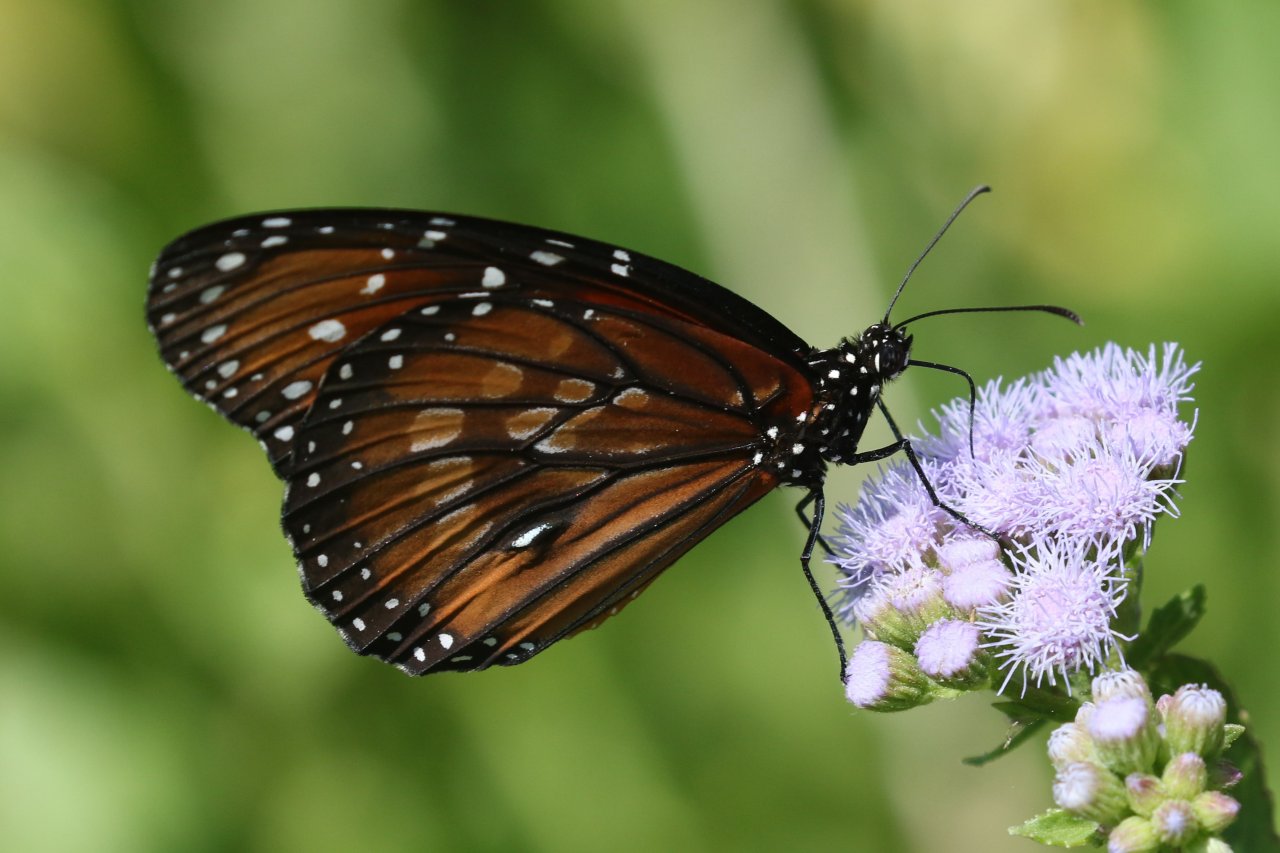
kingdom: Animalia
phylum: Arthropoda
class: Insecta
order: Lepidoptera
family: Nymphalidae
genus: Danaus
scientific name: Danaus eresimus
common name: Soldier
